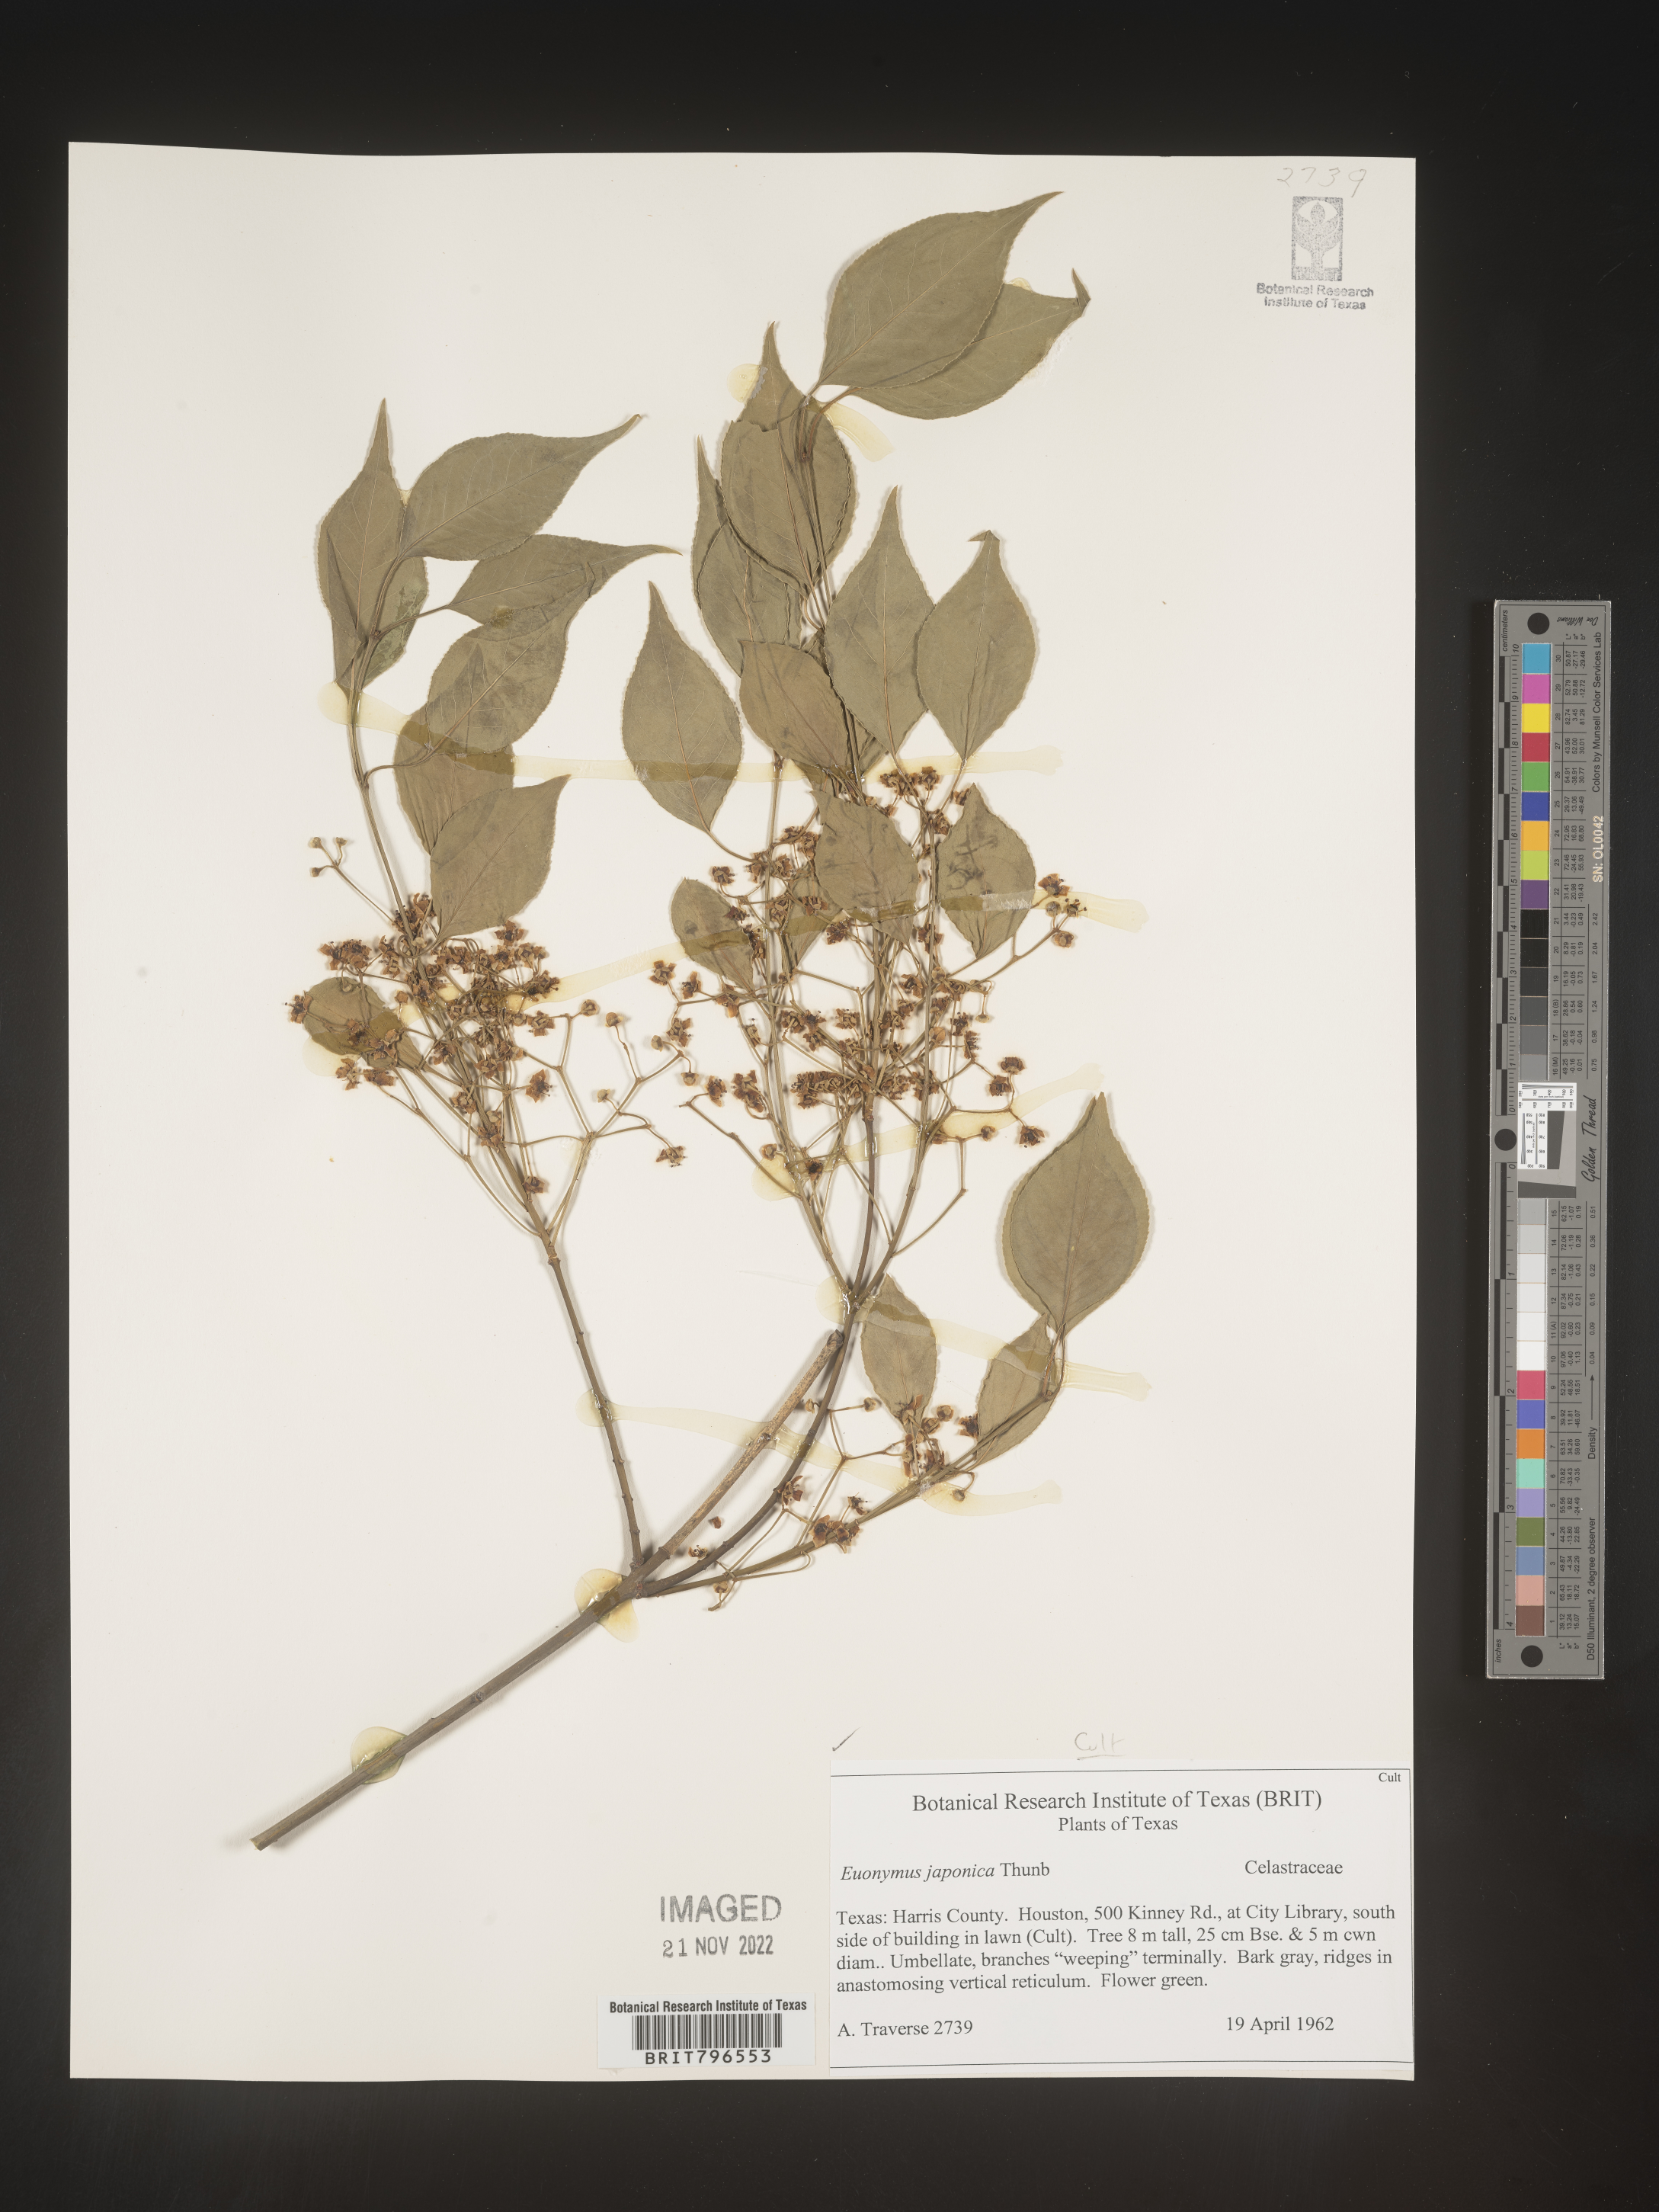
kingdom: Plantae
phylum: Tracheophyta
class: Magnoliopsida
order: Celastrales
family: Celastraceae
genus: Euonymus
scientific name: Euonymus
